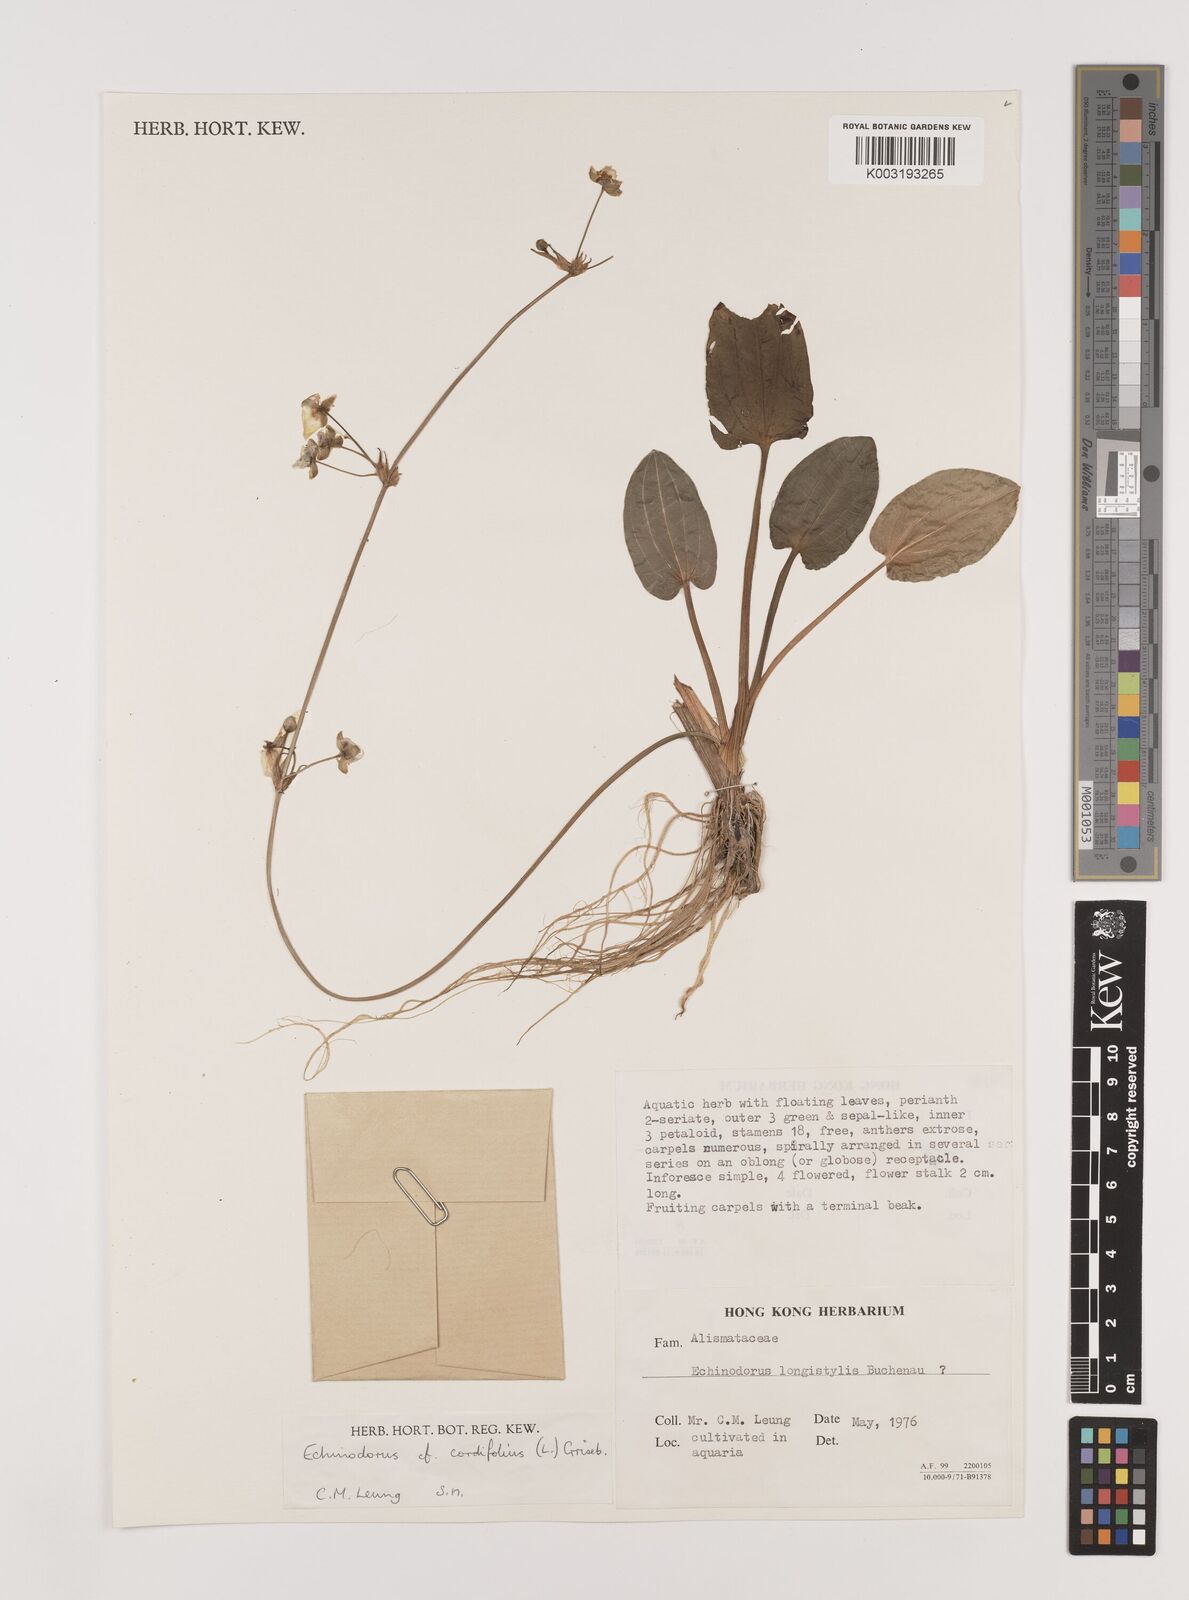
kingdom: Plantae
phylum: Tracheophyta
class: Liliopsida
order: Alismatales
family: Alismataceae
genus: Aquarius
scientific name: Aquarius cordifolius
